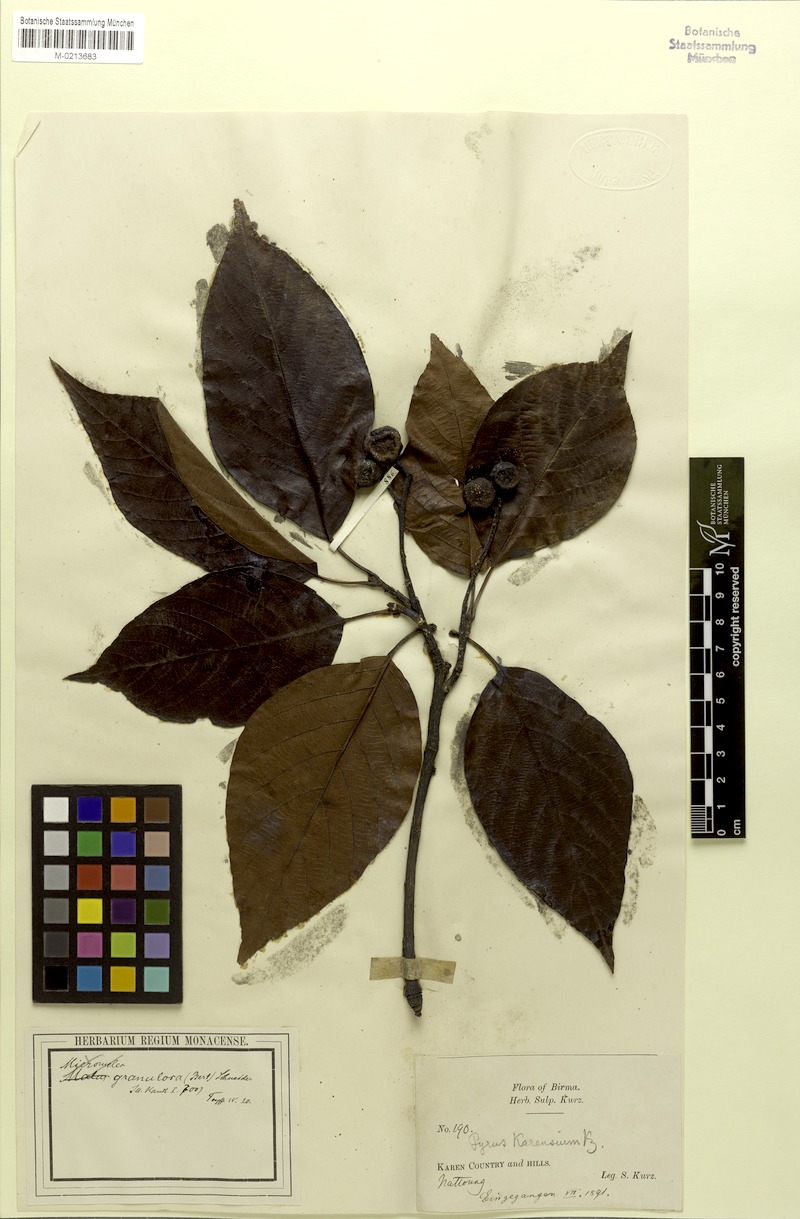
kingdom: Plantae
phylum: Tracheophyta
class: Magnoliopsida
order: Rosales
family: Rosaceae
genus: Sorbus
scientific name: Sorbus granulosa
